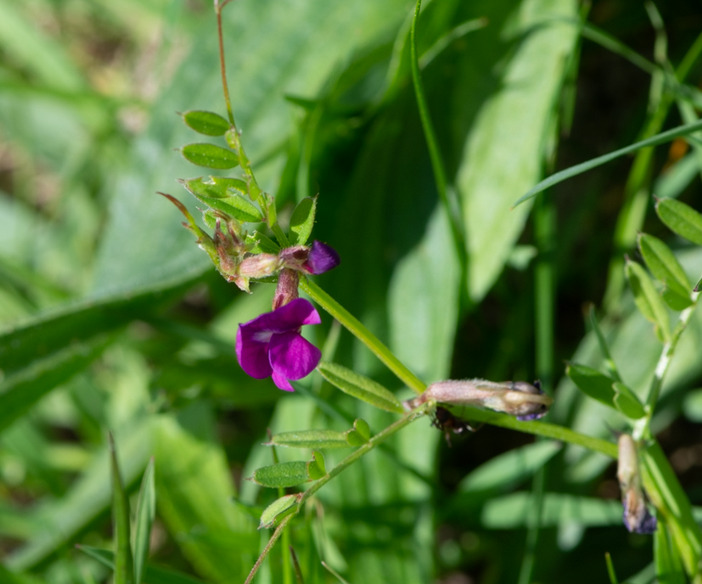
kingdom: Plantae
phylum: Tracheophyta
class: Magnoliopsida
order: Fabales
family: Fabaceae
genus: Vicia
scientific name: Vicia sativa
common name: Foder-vikke
